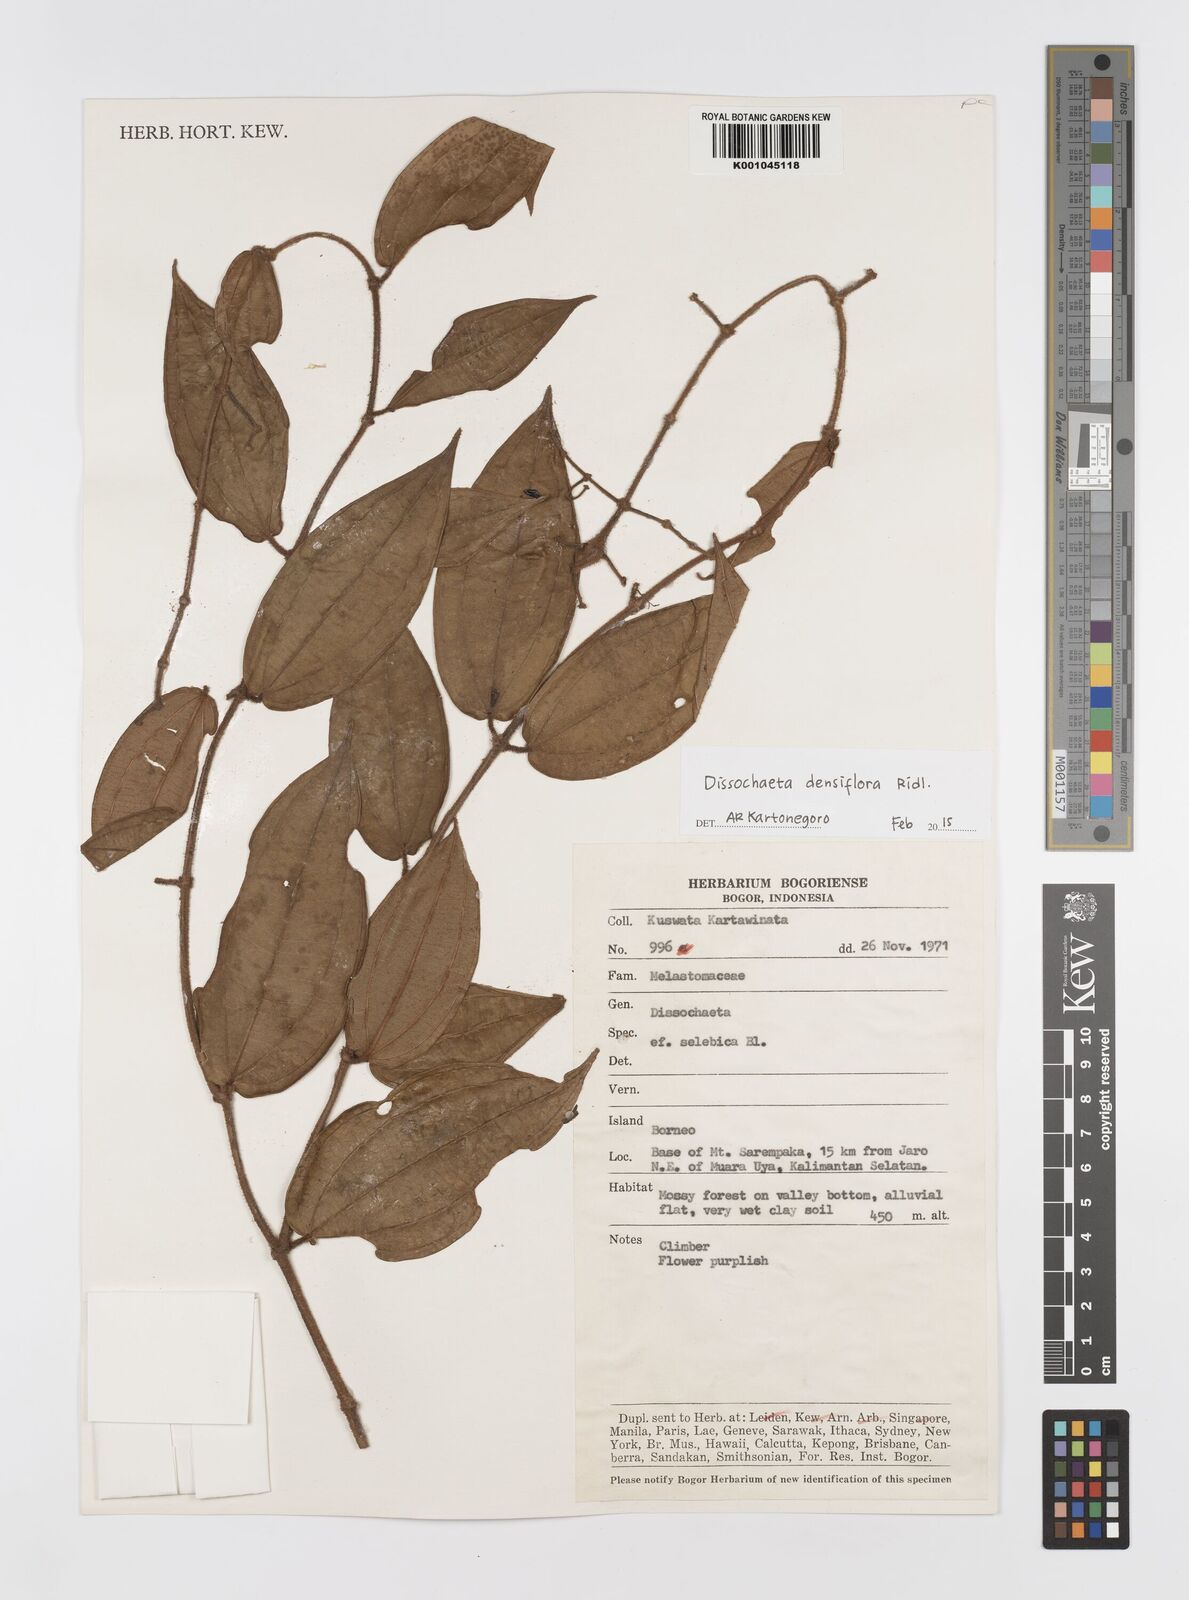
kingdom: Plantae
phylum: Tracheophyta
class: Magnoliopsida
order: Myrtales
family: Melastomataceae
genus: Dissochaeta
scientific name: Dissochaeta densiflora
